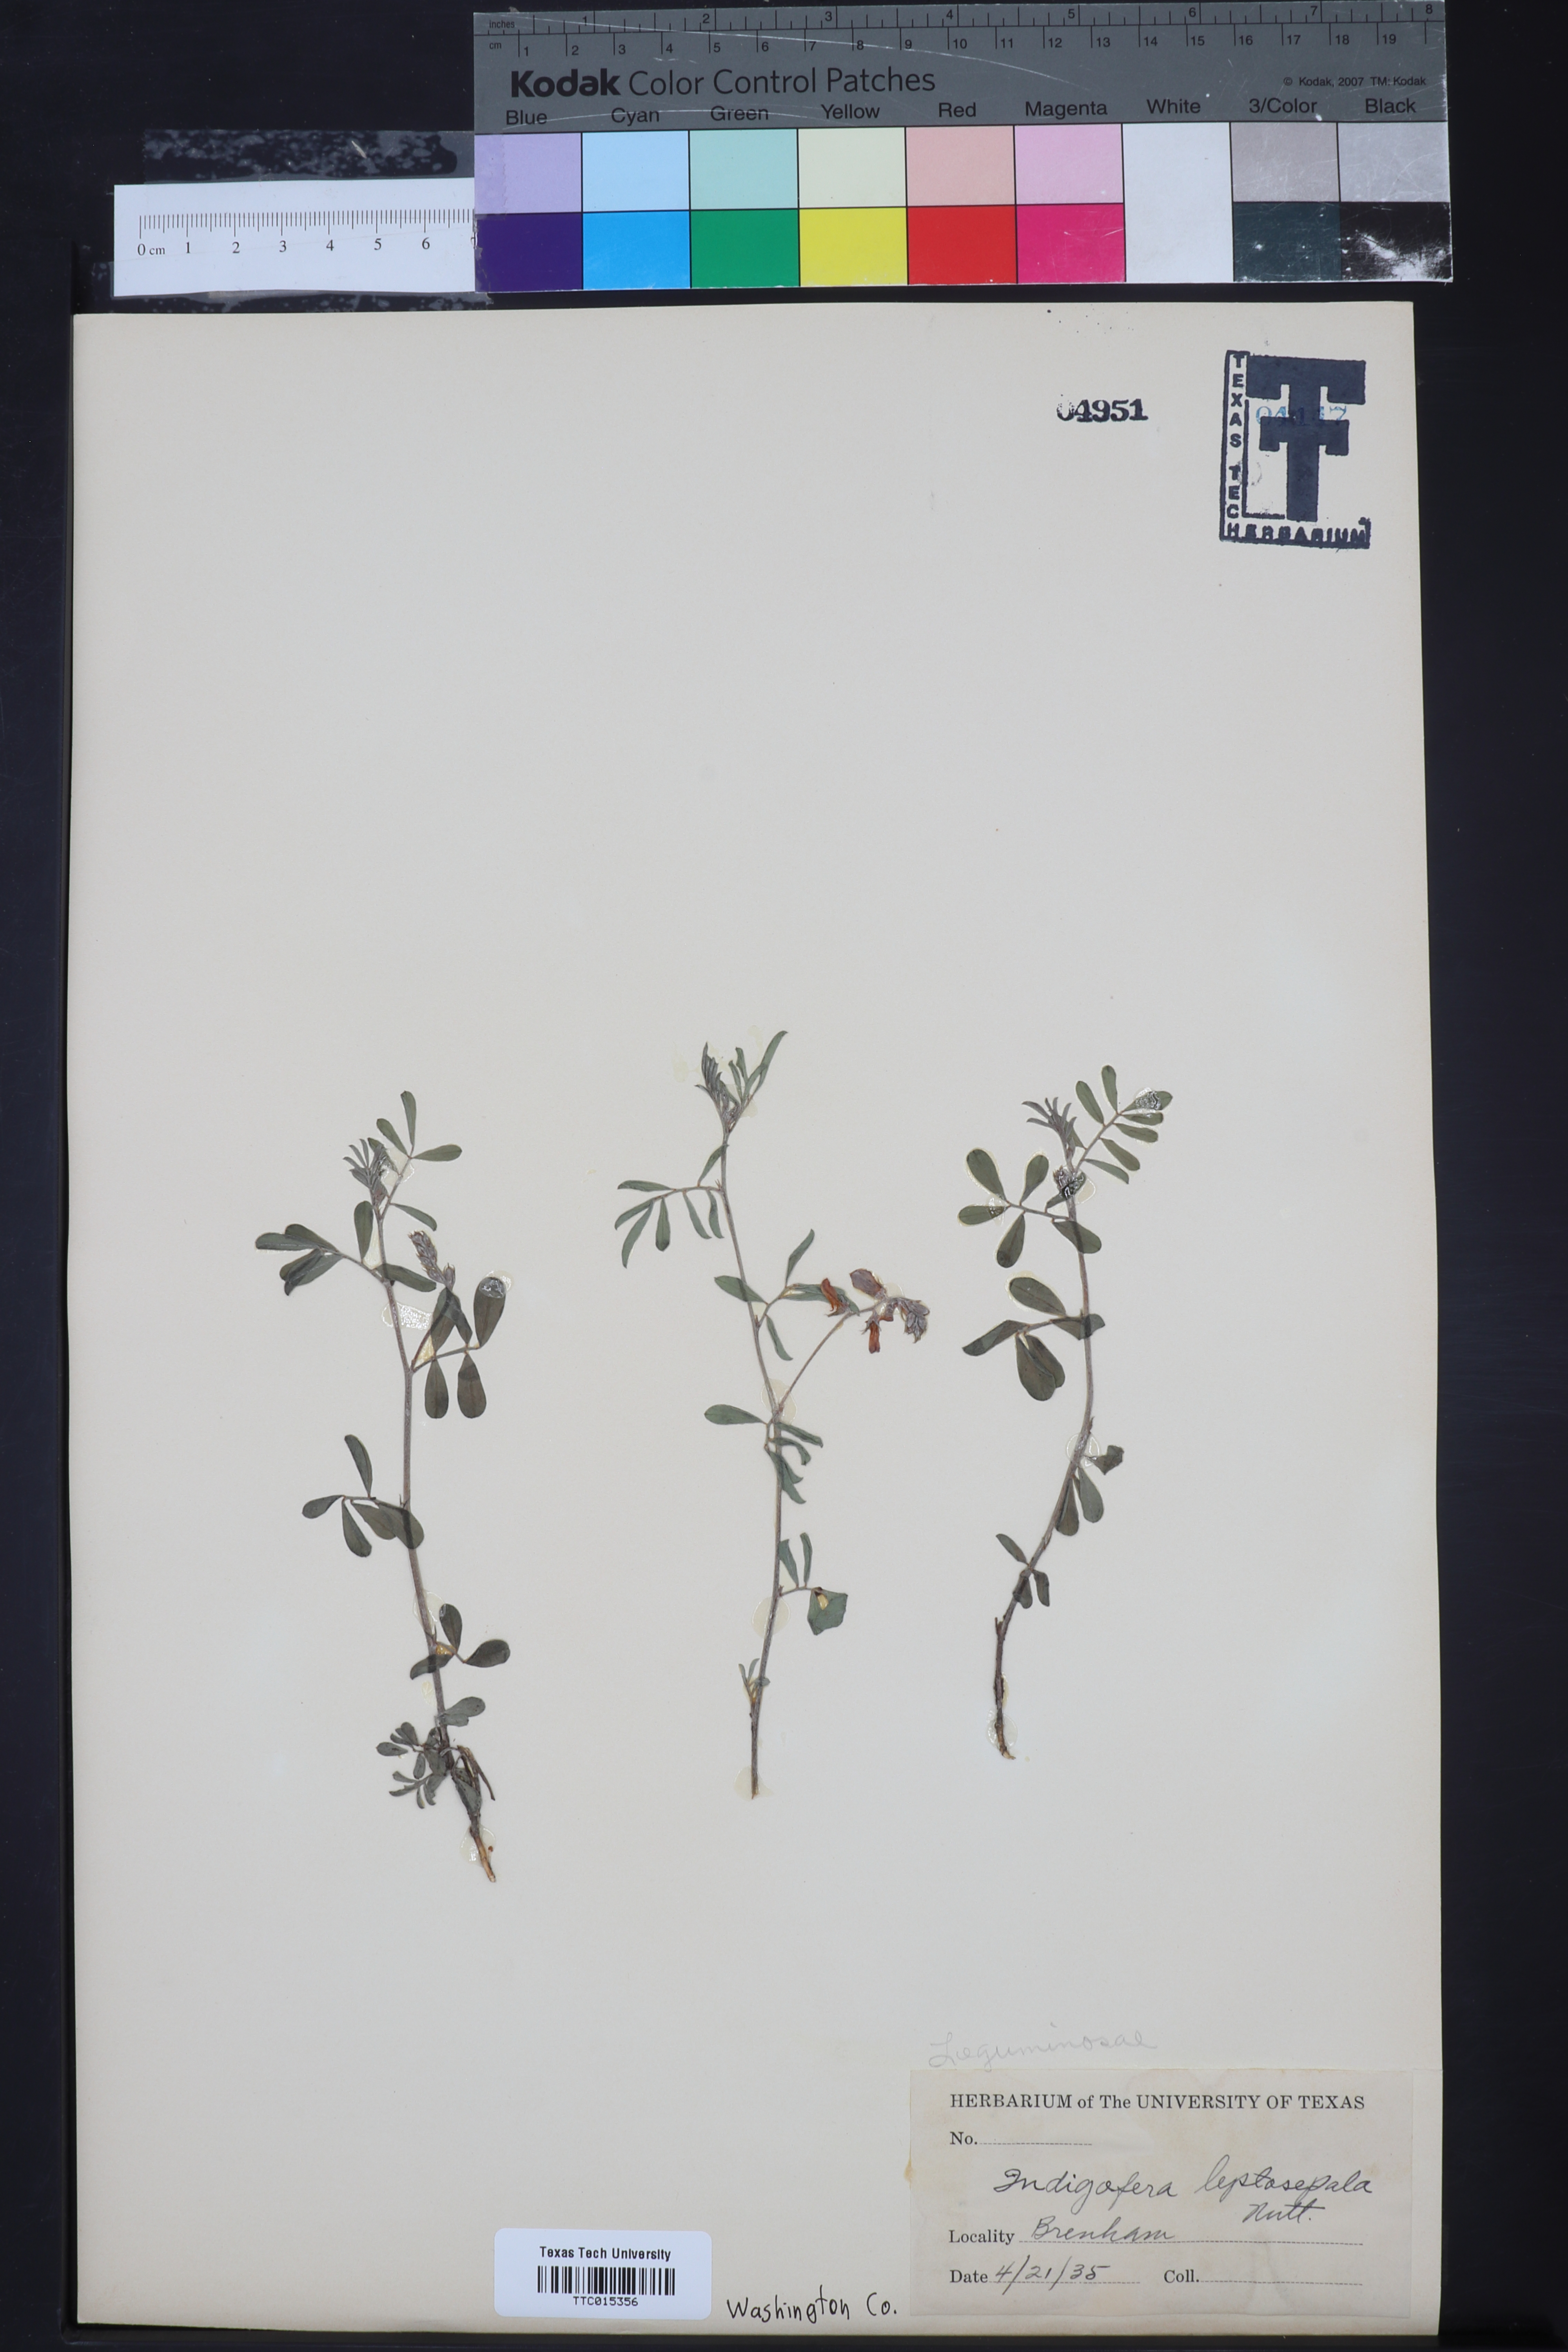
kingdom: Plantae
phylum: Tracheophyta
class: Magnoliopsida
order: Fabales
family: Fabaceae
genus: Indigofera
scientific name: Indigofera argutidens
